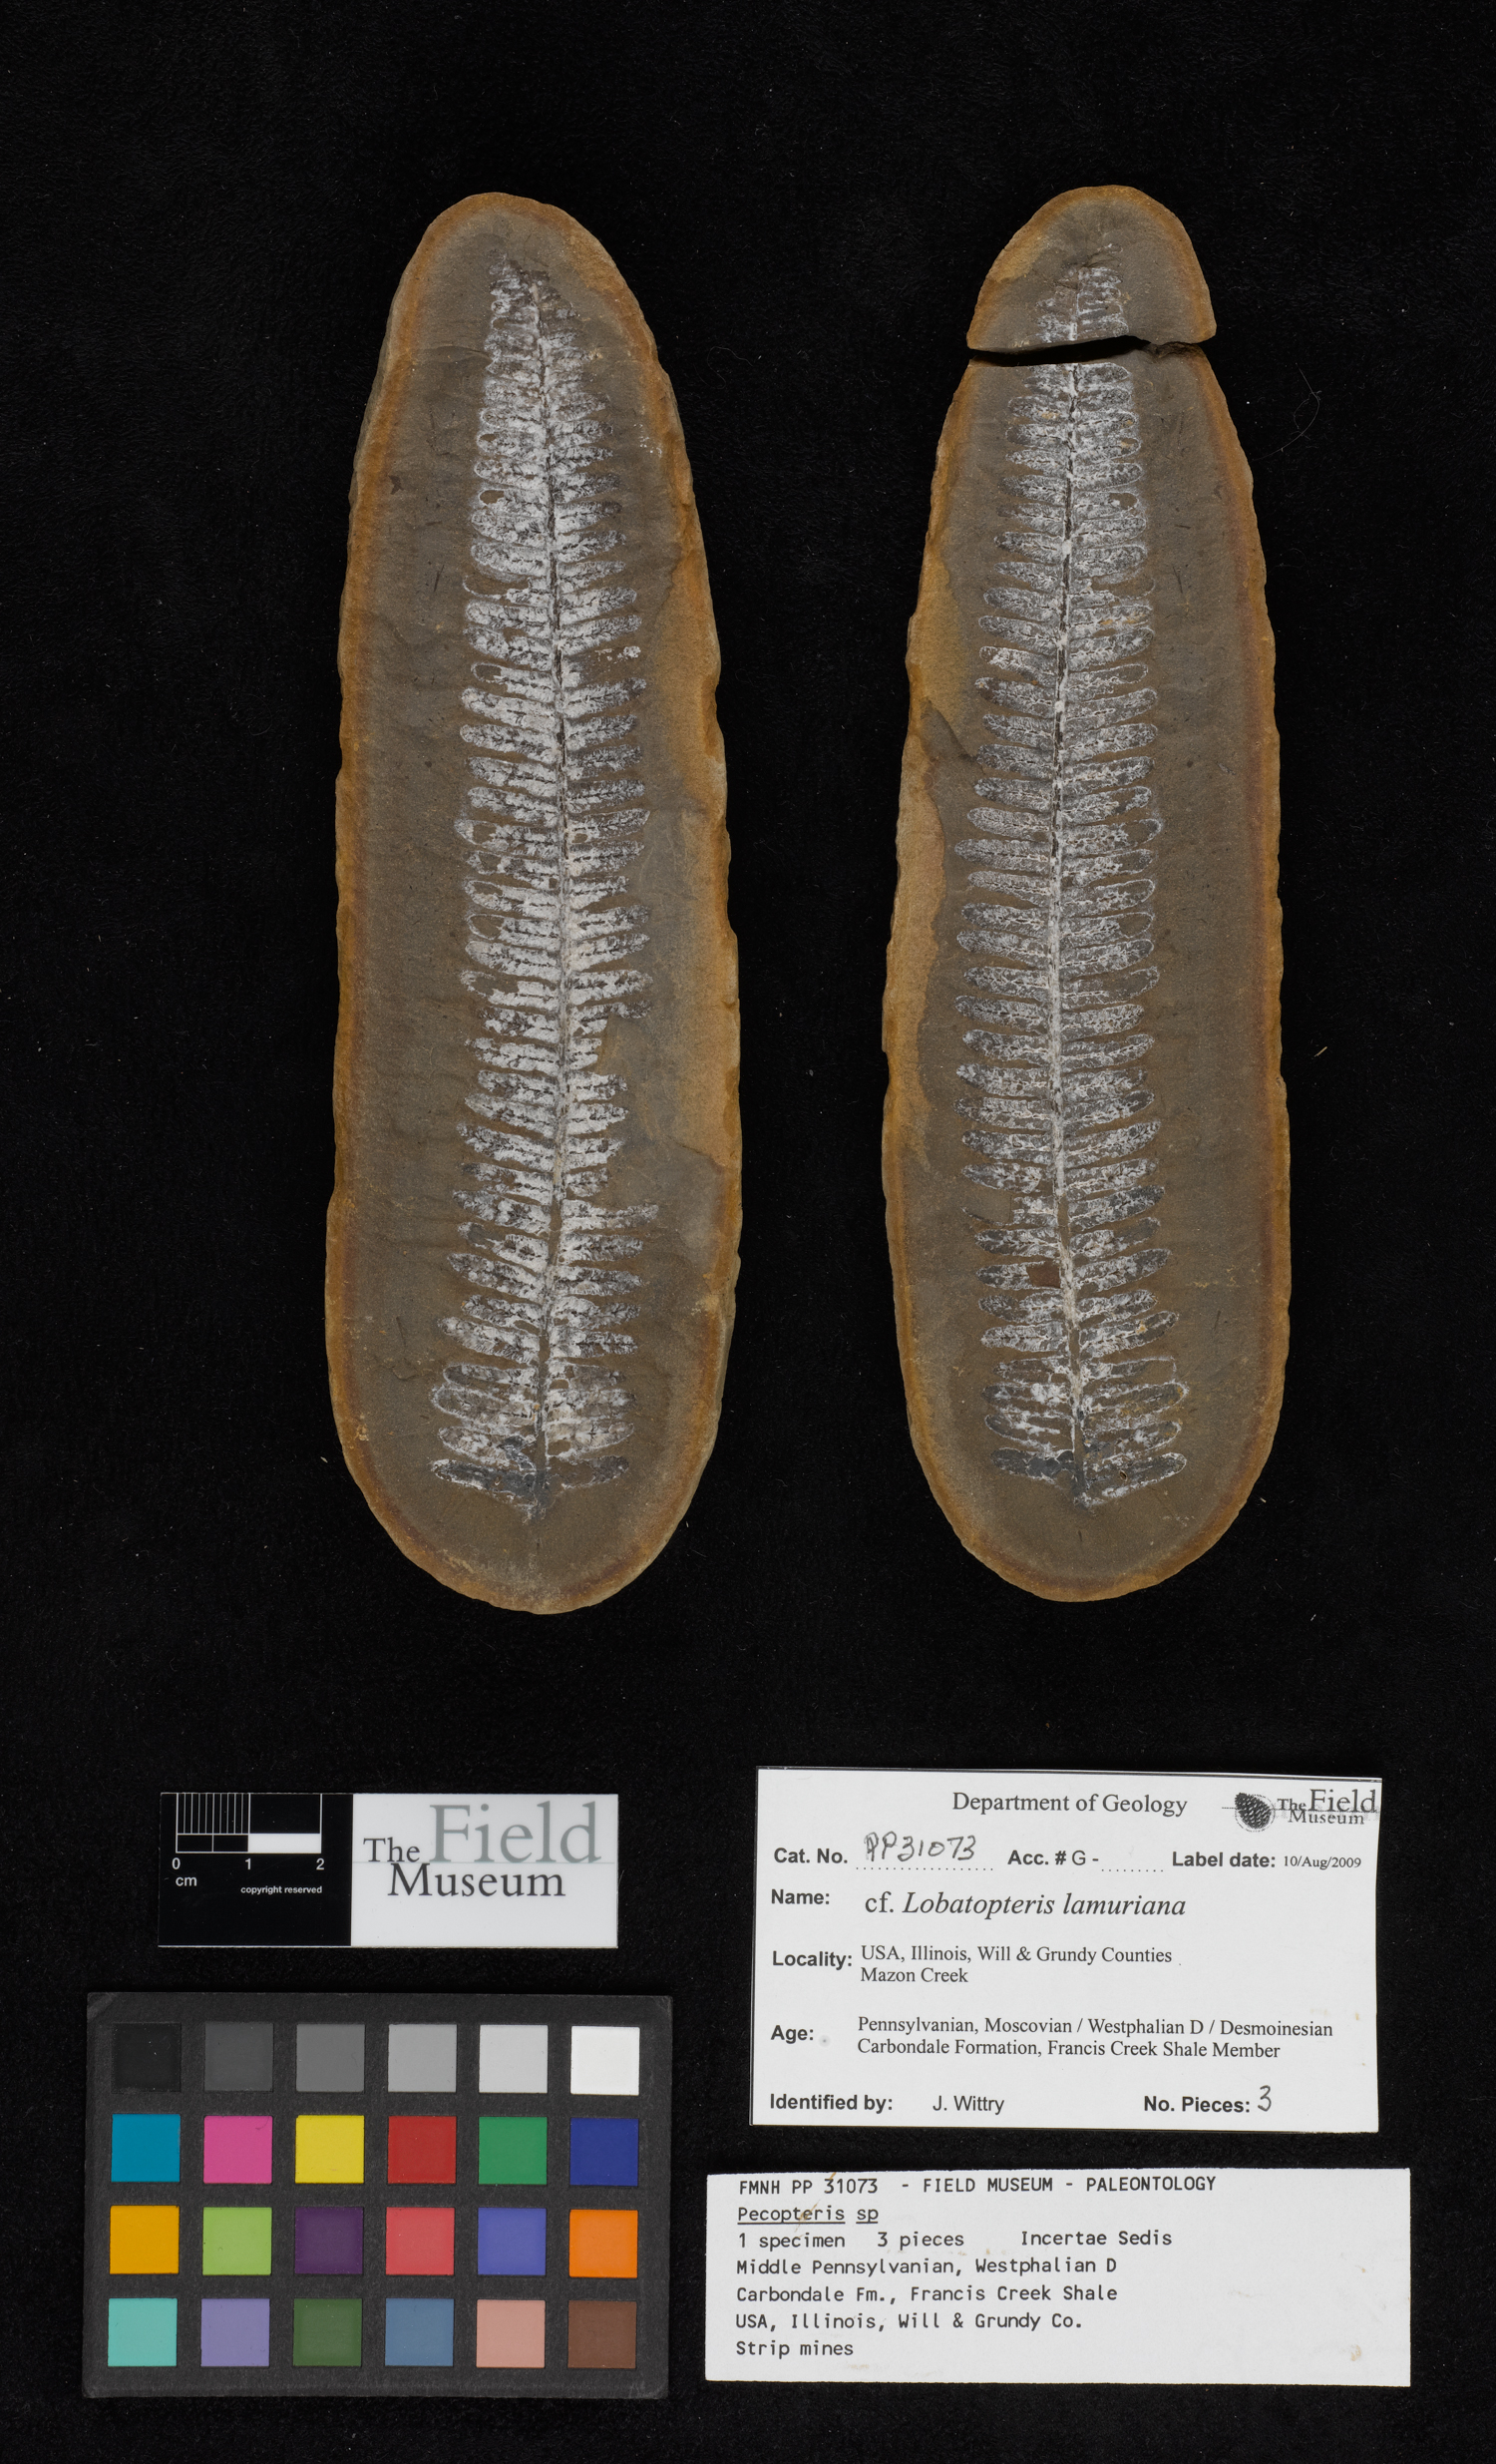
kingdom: Plantae
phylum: Tracheophyta
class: Polypodiopsida
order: Marattiales
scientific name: Marattiales
